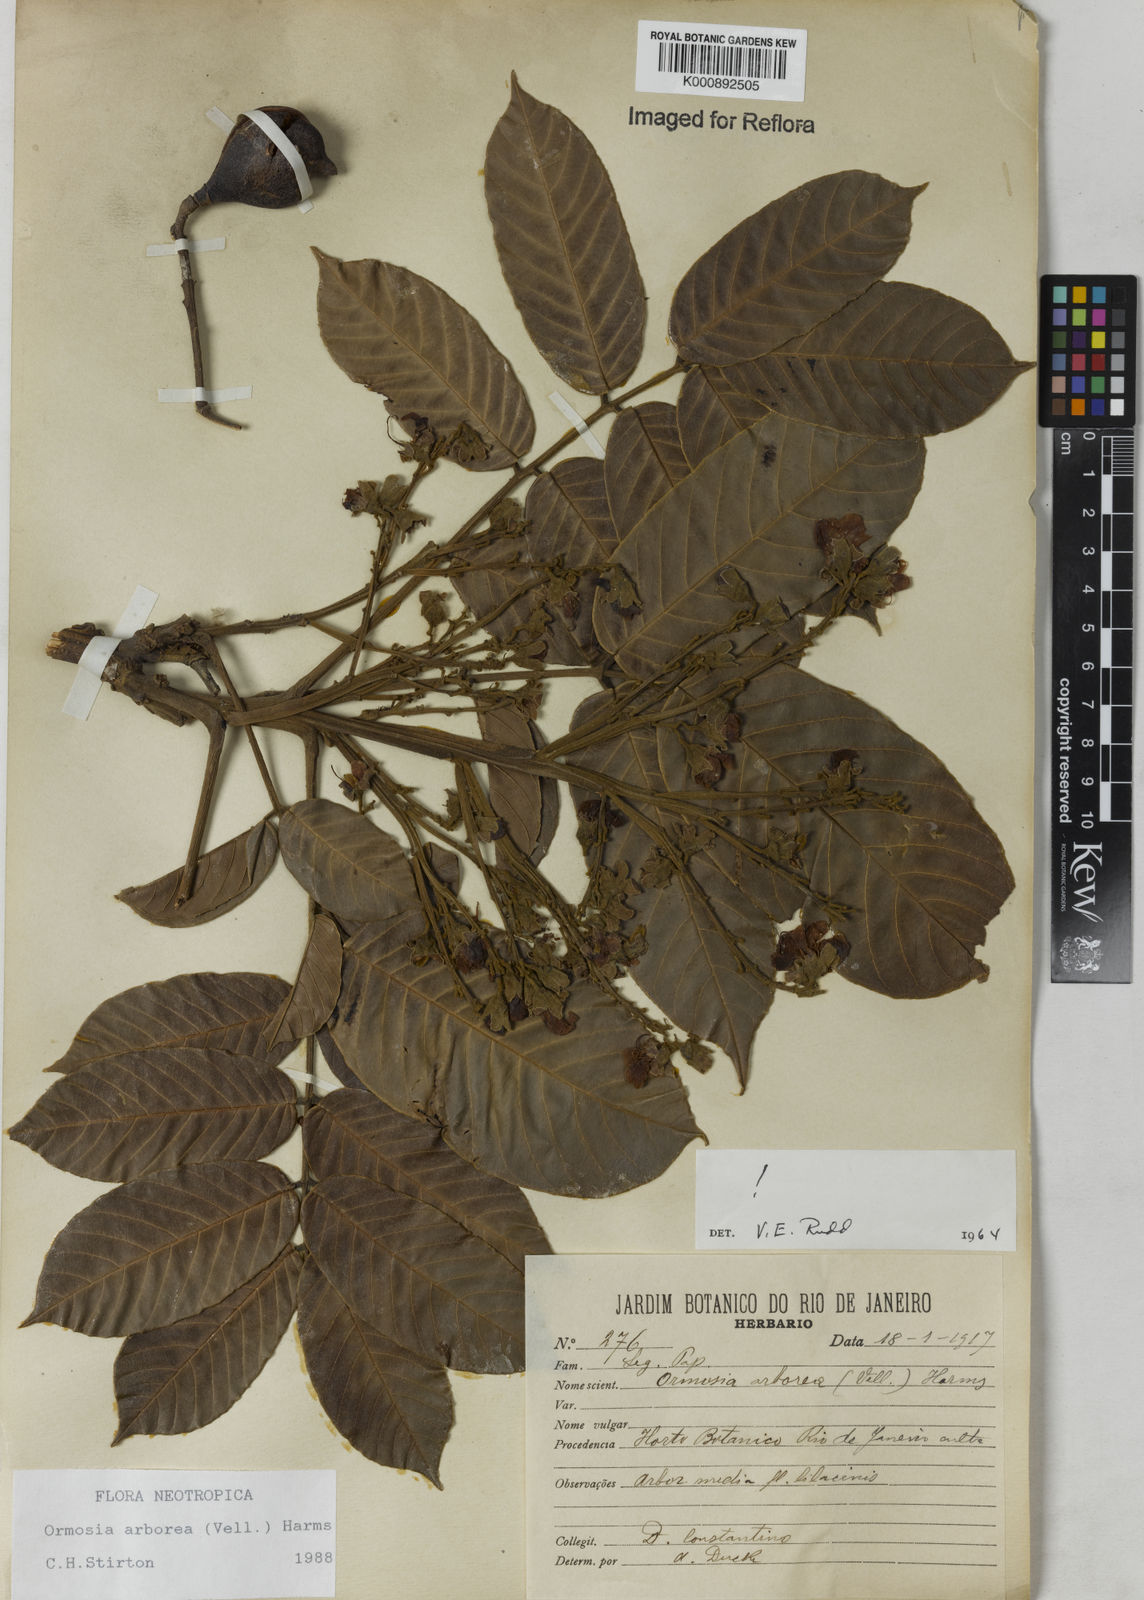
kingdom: Plantae
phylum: Tracheophyta
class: Magnoliopsida
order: Fabales
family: Fabaceae
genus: Ormosia
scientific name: Ormosia arborea
